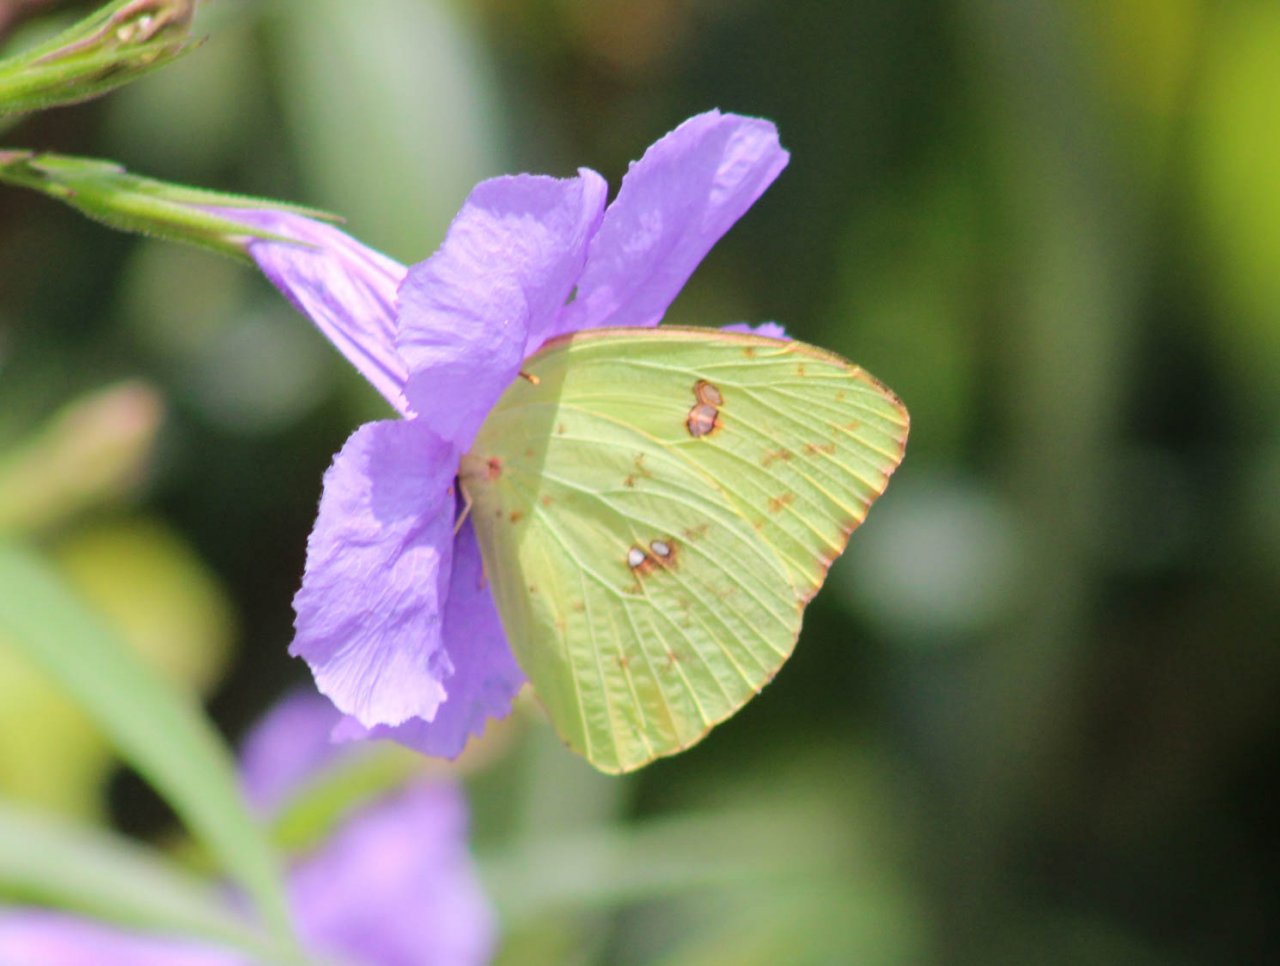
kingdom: Animalia
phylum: Arthropoda
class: Insecta
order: Lepidoptera
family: Pieridae
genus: Phoebis
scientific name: Phoebis sennae
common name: Cloudless Sulphur
